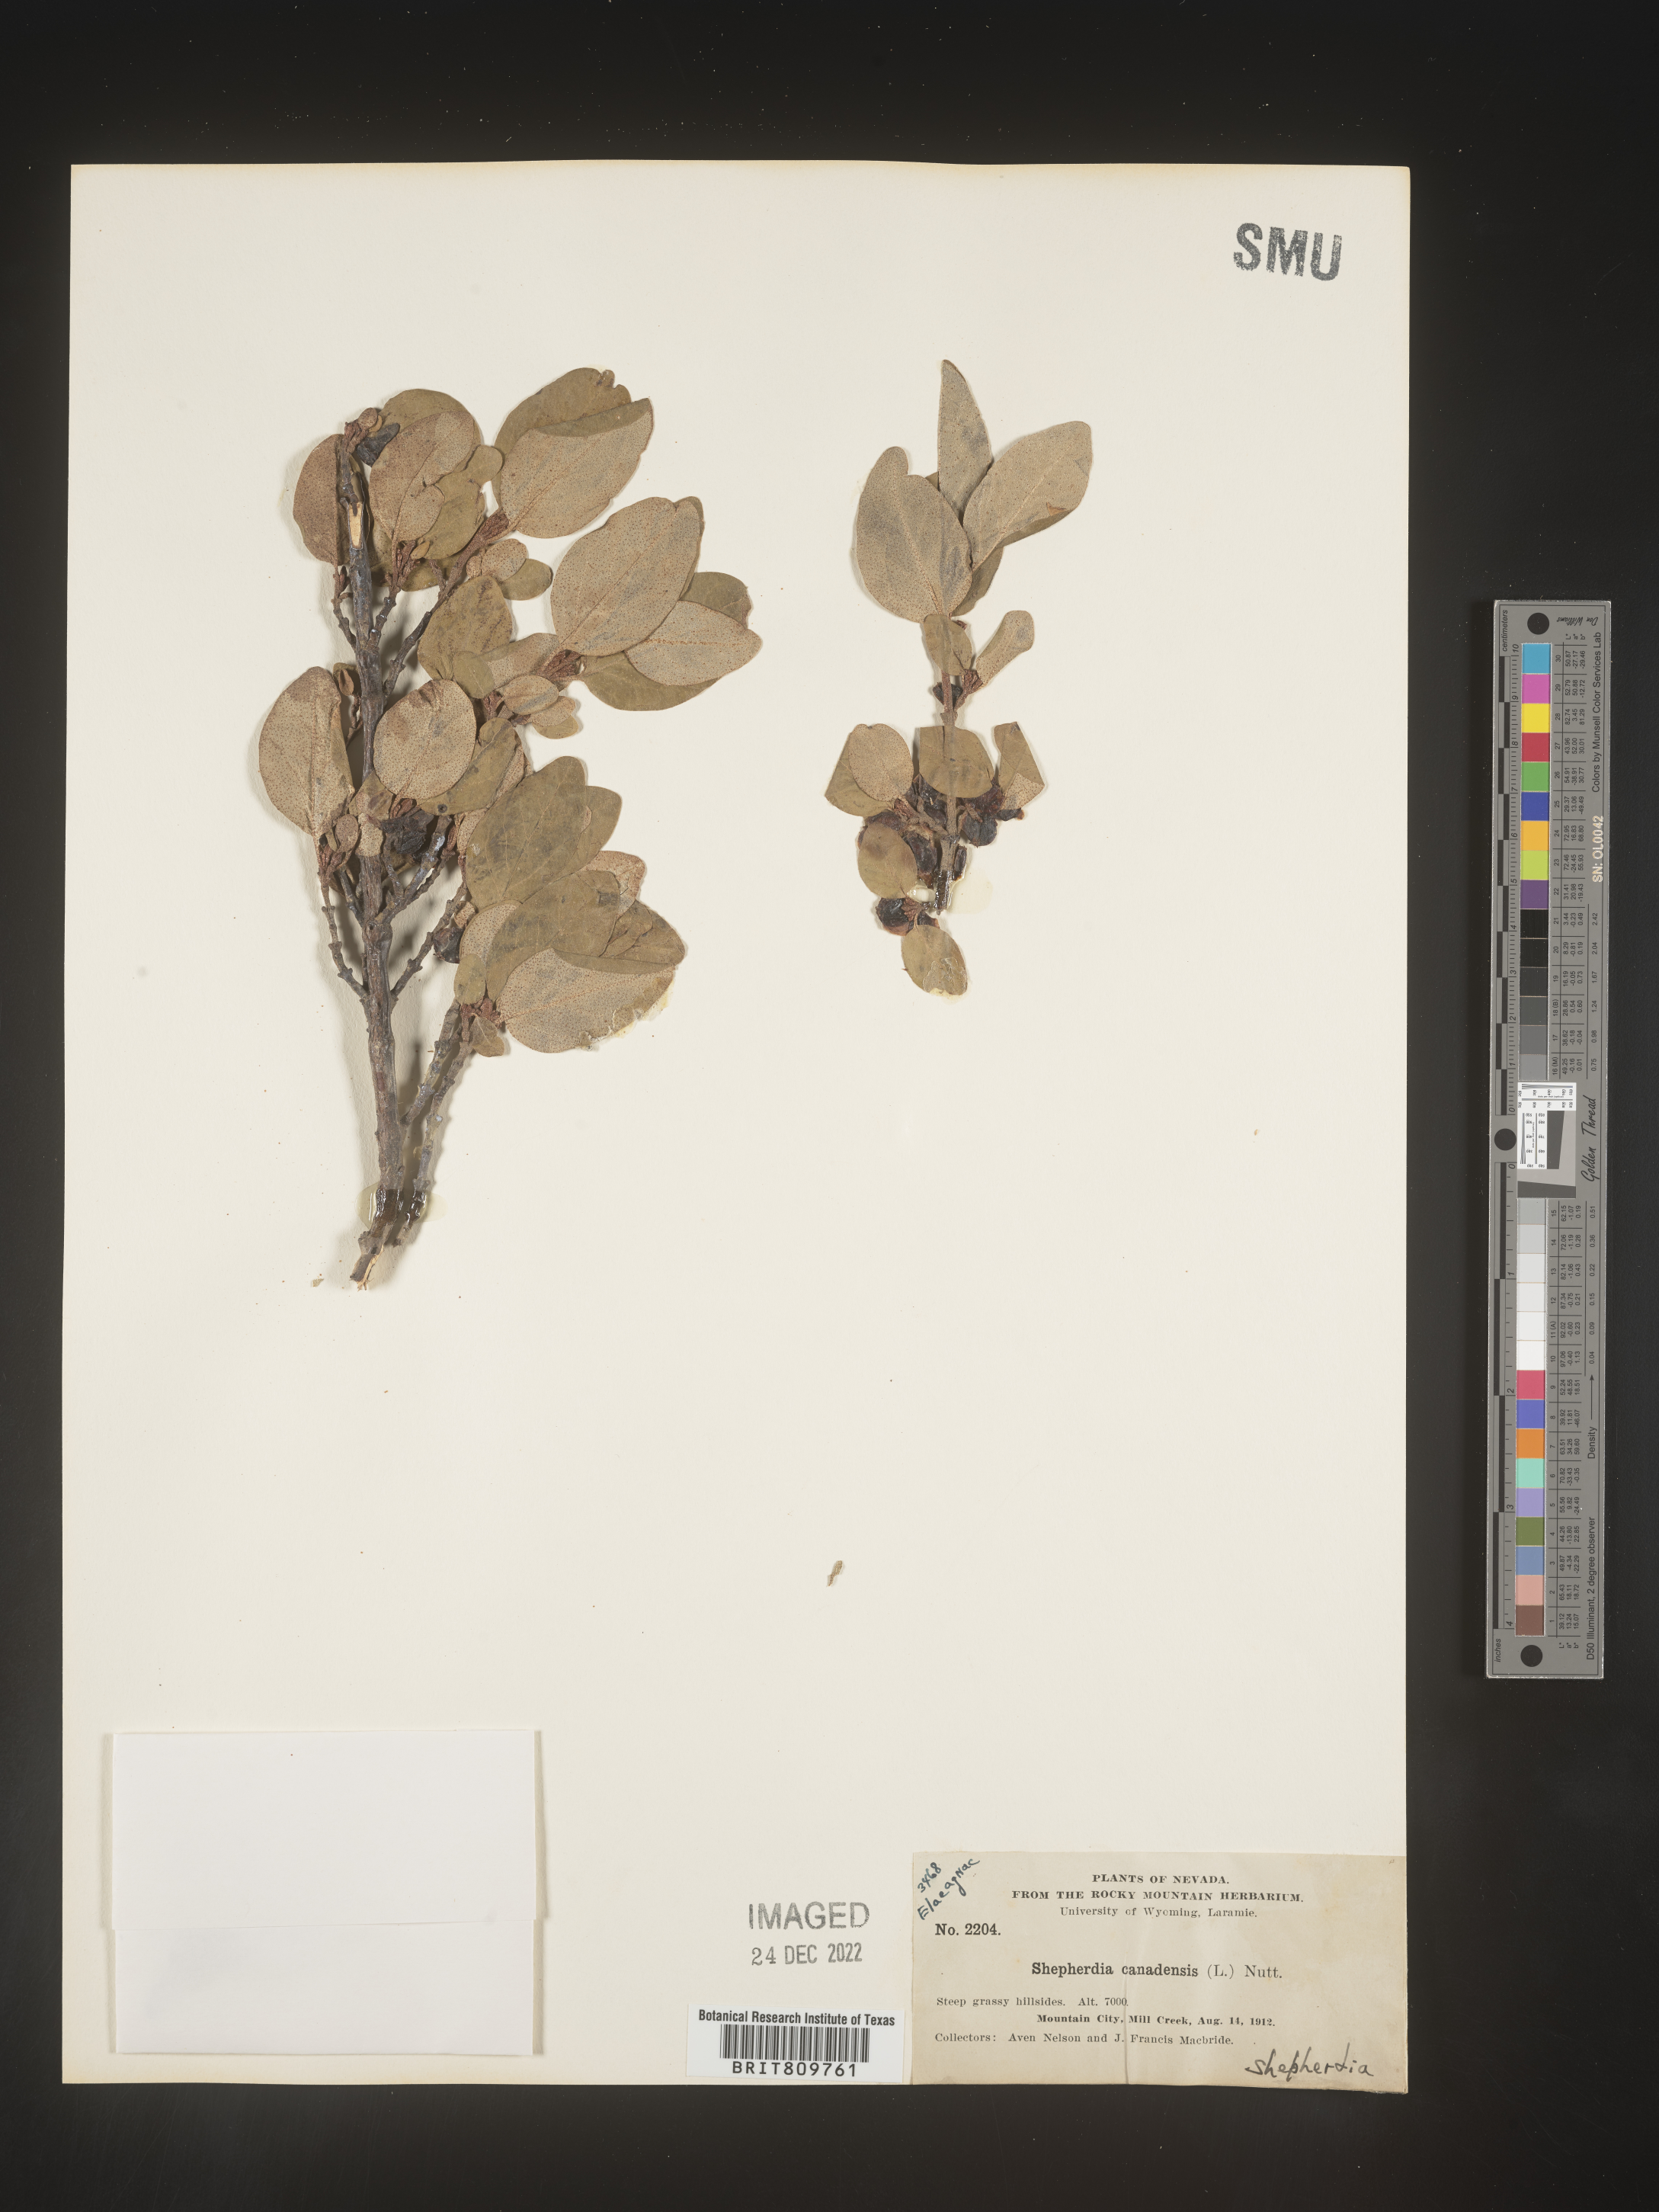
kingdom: Plantae
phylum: Tracheophyta
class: Magnoliopsida
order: Rosales
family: Elaeagnaceae
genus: Shepherdia
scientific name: Shepherdia canadensis
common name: Soapberry
